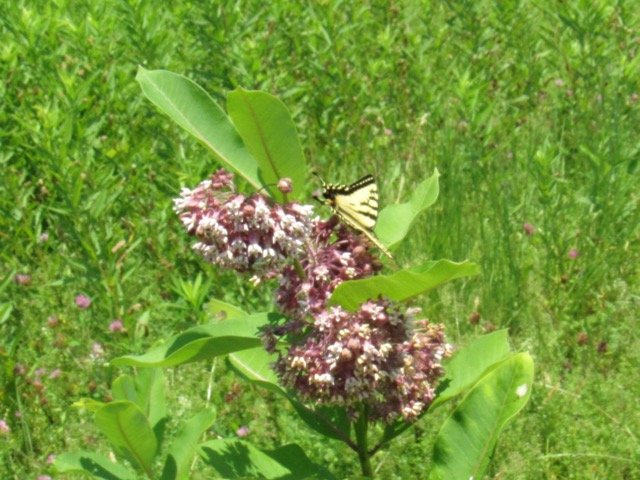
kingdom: Animalia
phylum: Arthropoda
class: Insecta
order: Lepidoptera
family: Papilionidae
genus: Pterourus
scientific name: Pterourus
